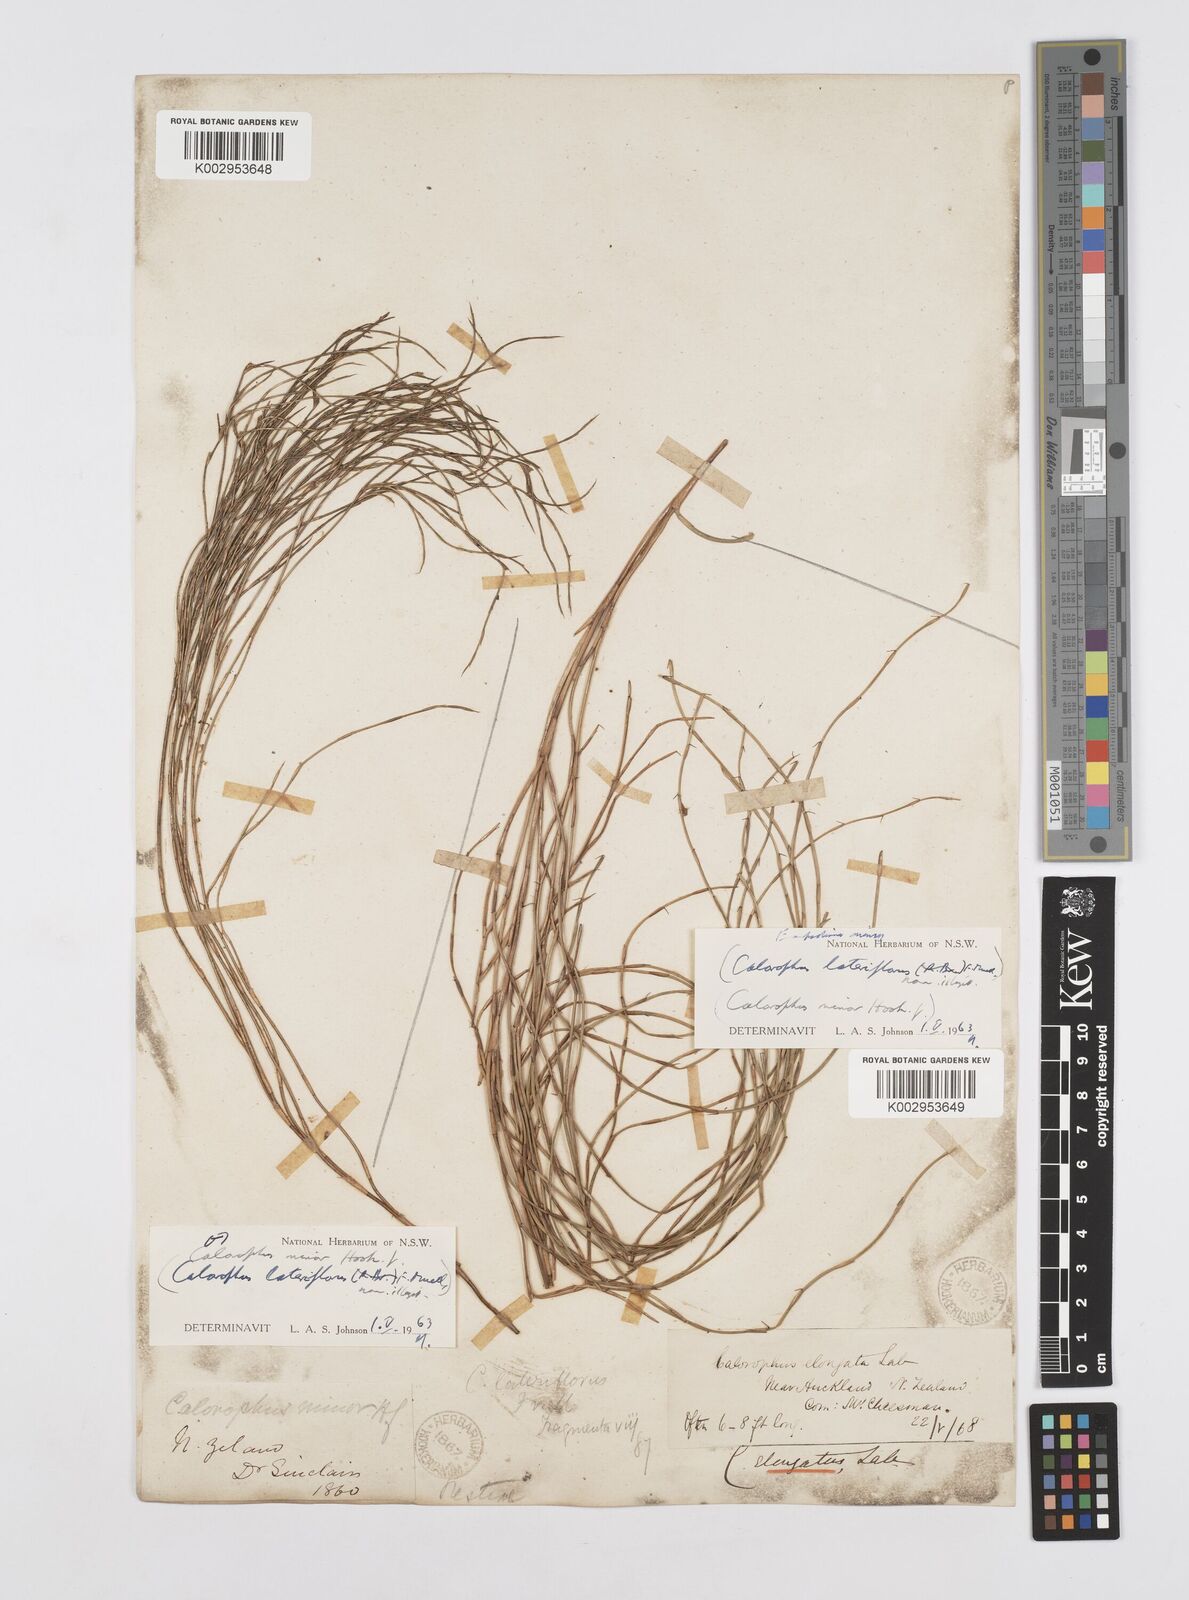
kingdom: Plantae
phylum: Tracheophyta
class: Liliopsida
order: Poales
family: Restionaceae
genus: Empodisma
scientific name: Empodisma minus
